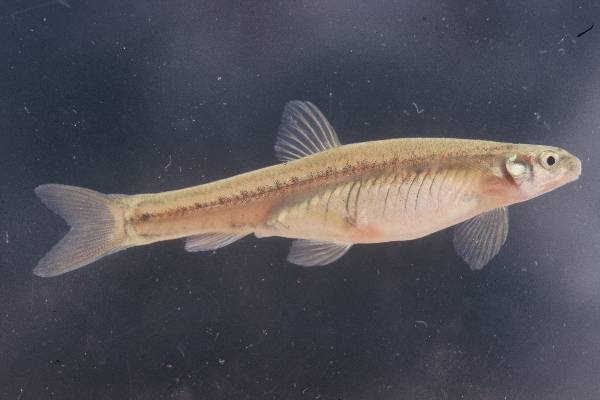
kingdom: Animalia
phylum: Chordata
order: Gonorynchiformes
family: Kneriidae
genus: Kneria
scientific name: Kneria maydelli
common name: Cunene kneria
